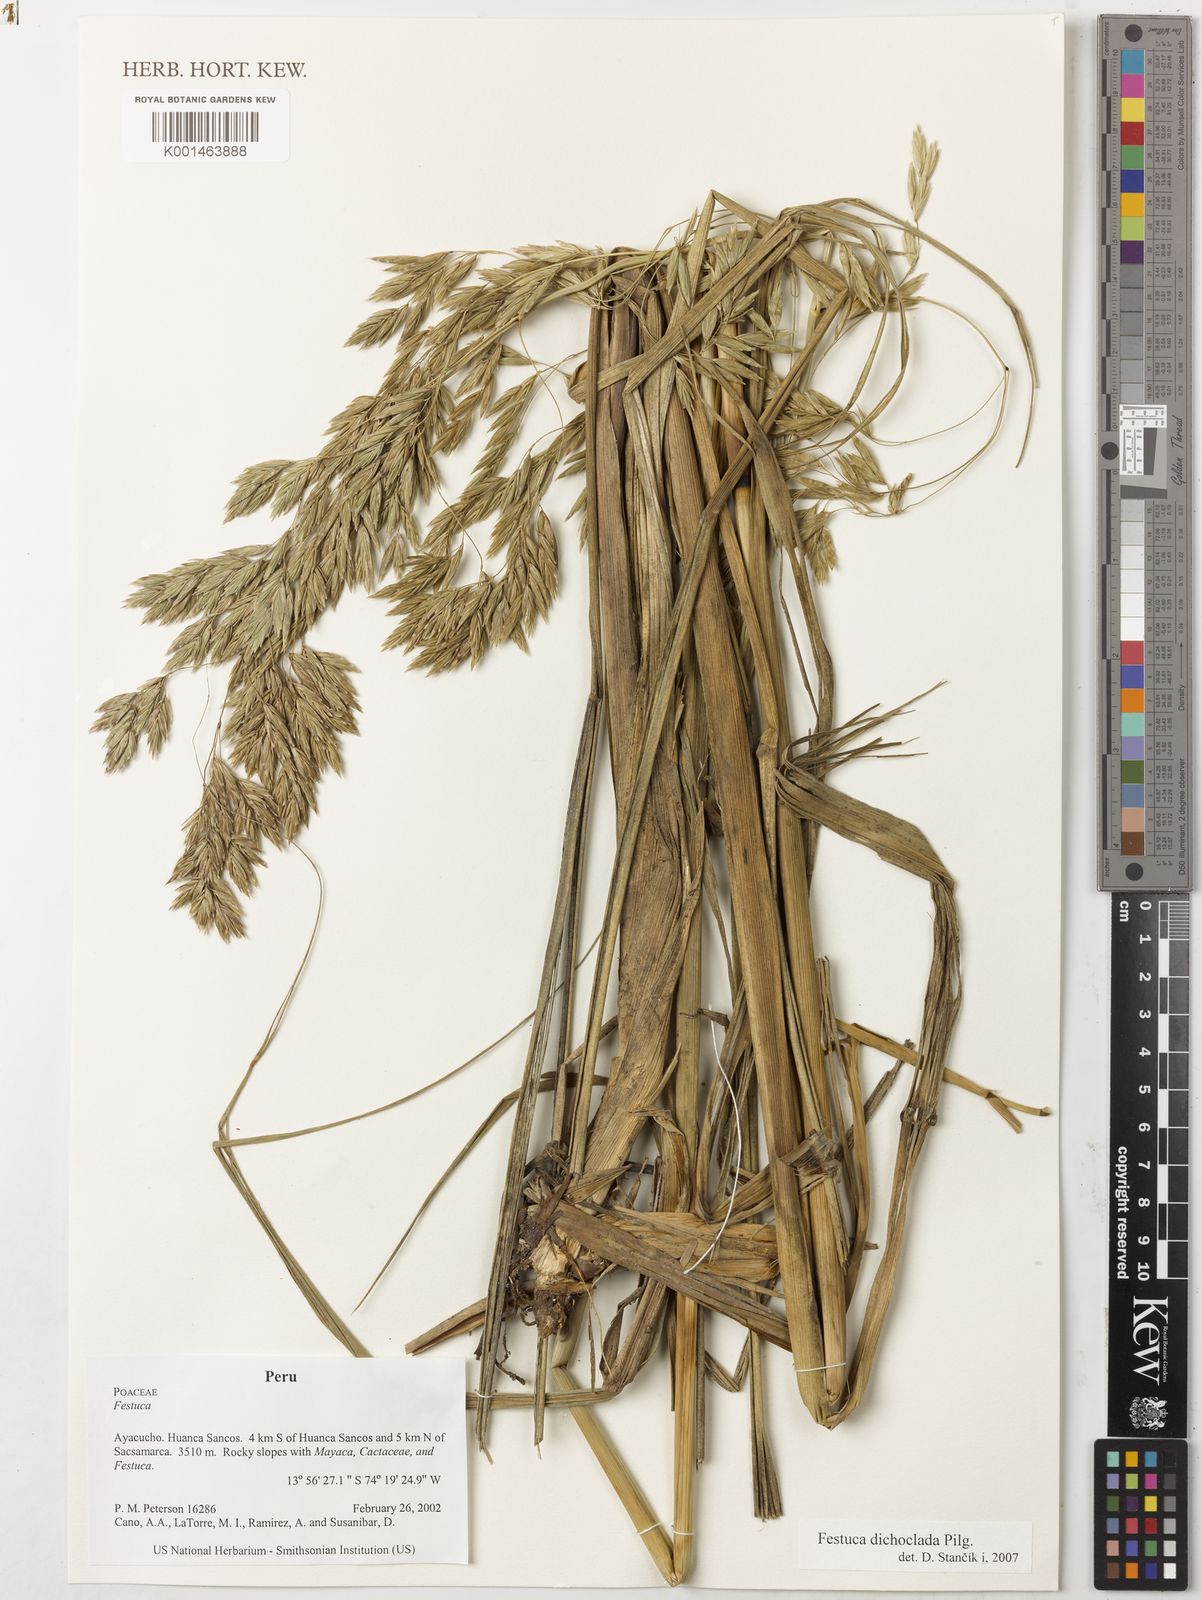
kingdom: Plantae
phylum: Tracheophyta
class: Liliopsida
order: Poales
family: Poaceae
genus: Festuca
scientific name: Festuca dichoclada
